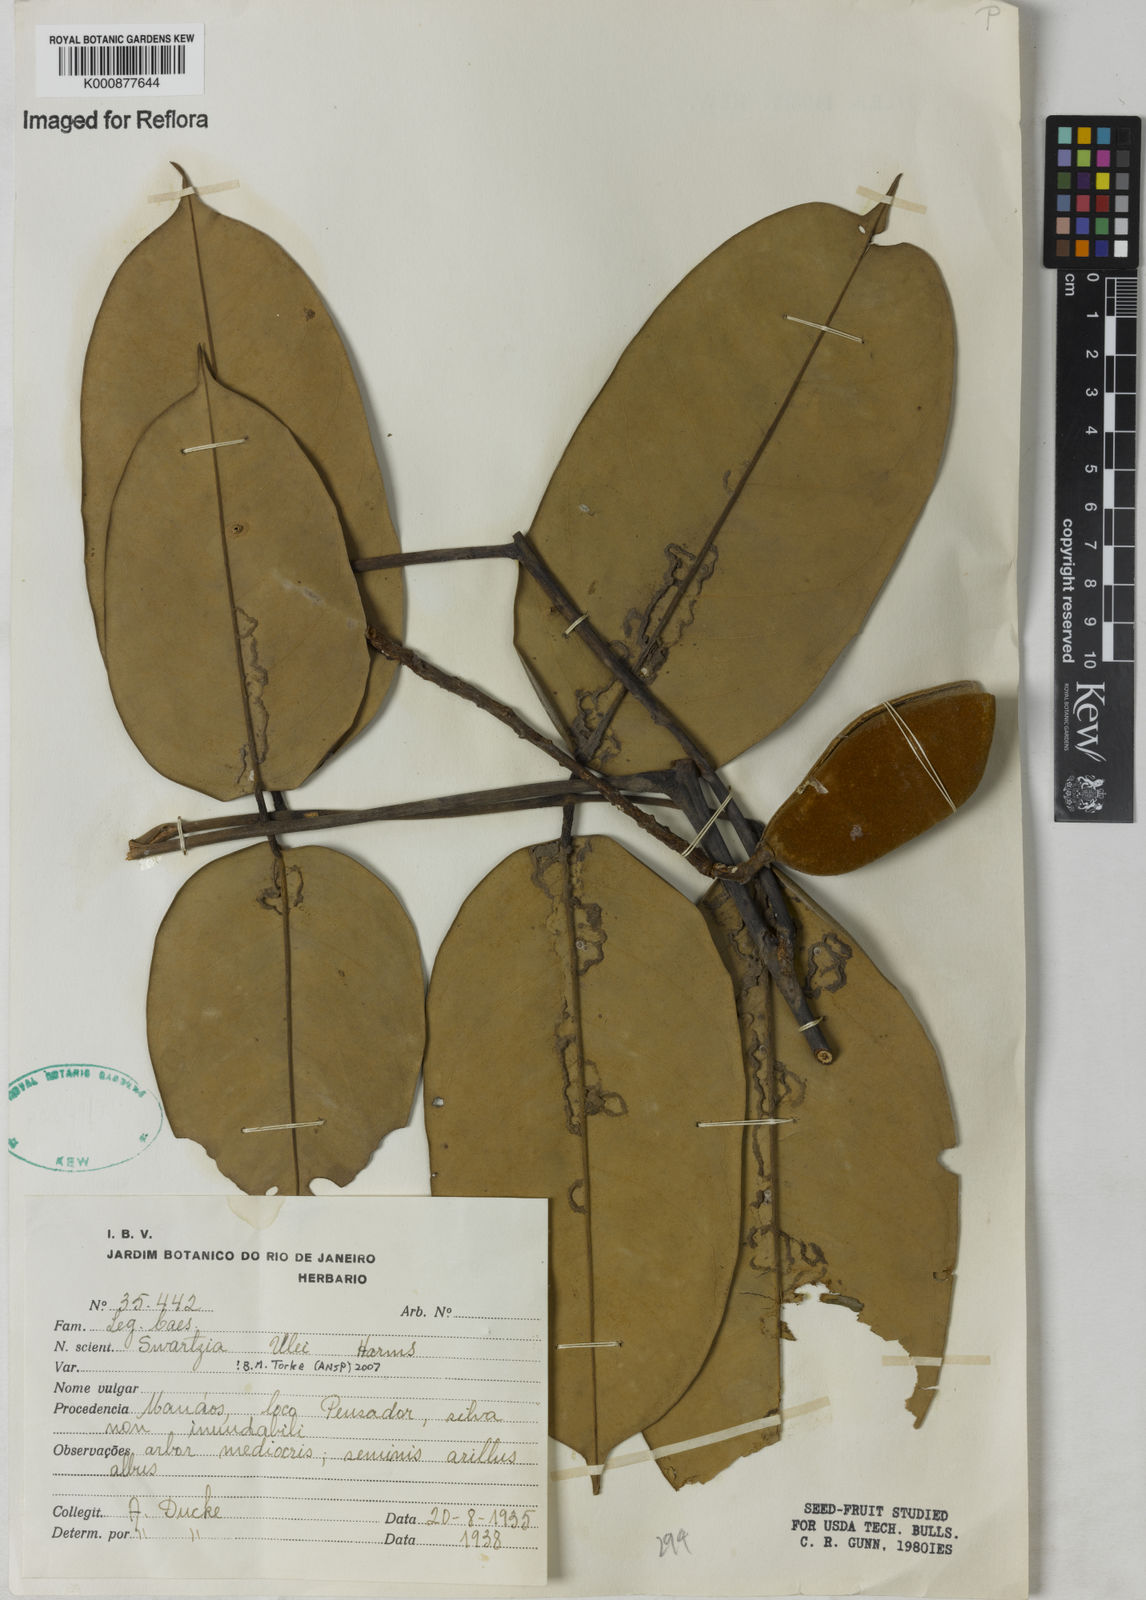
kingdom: Plantae
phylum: Tracheophyta
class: Magnoliopsida
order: Fabales
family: Fabaceae
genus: Swartzia
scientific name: Swartzia ulei
